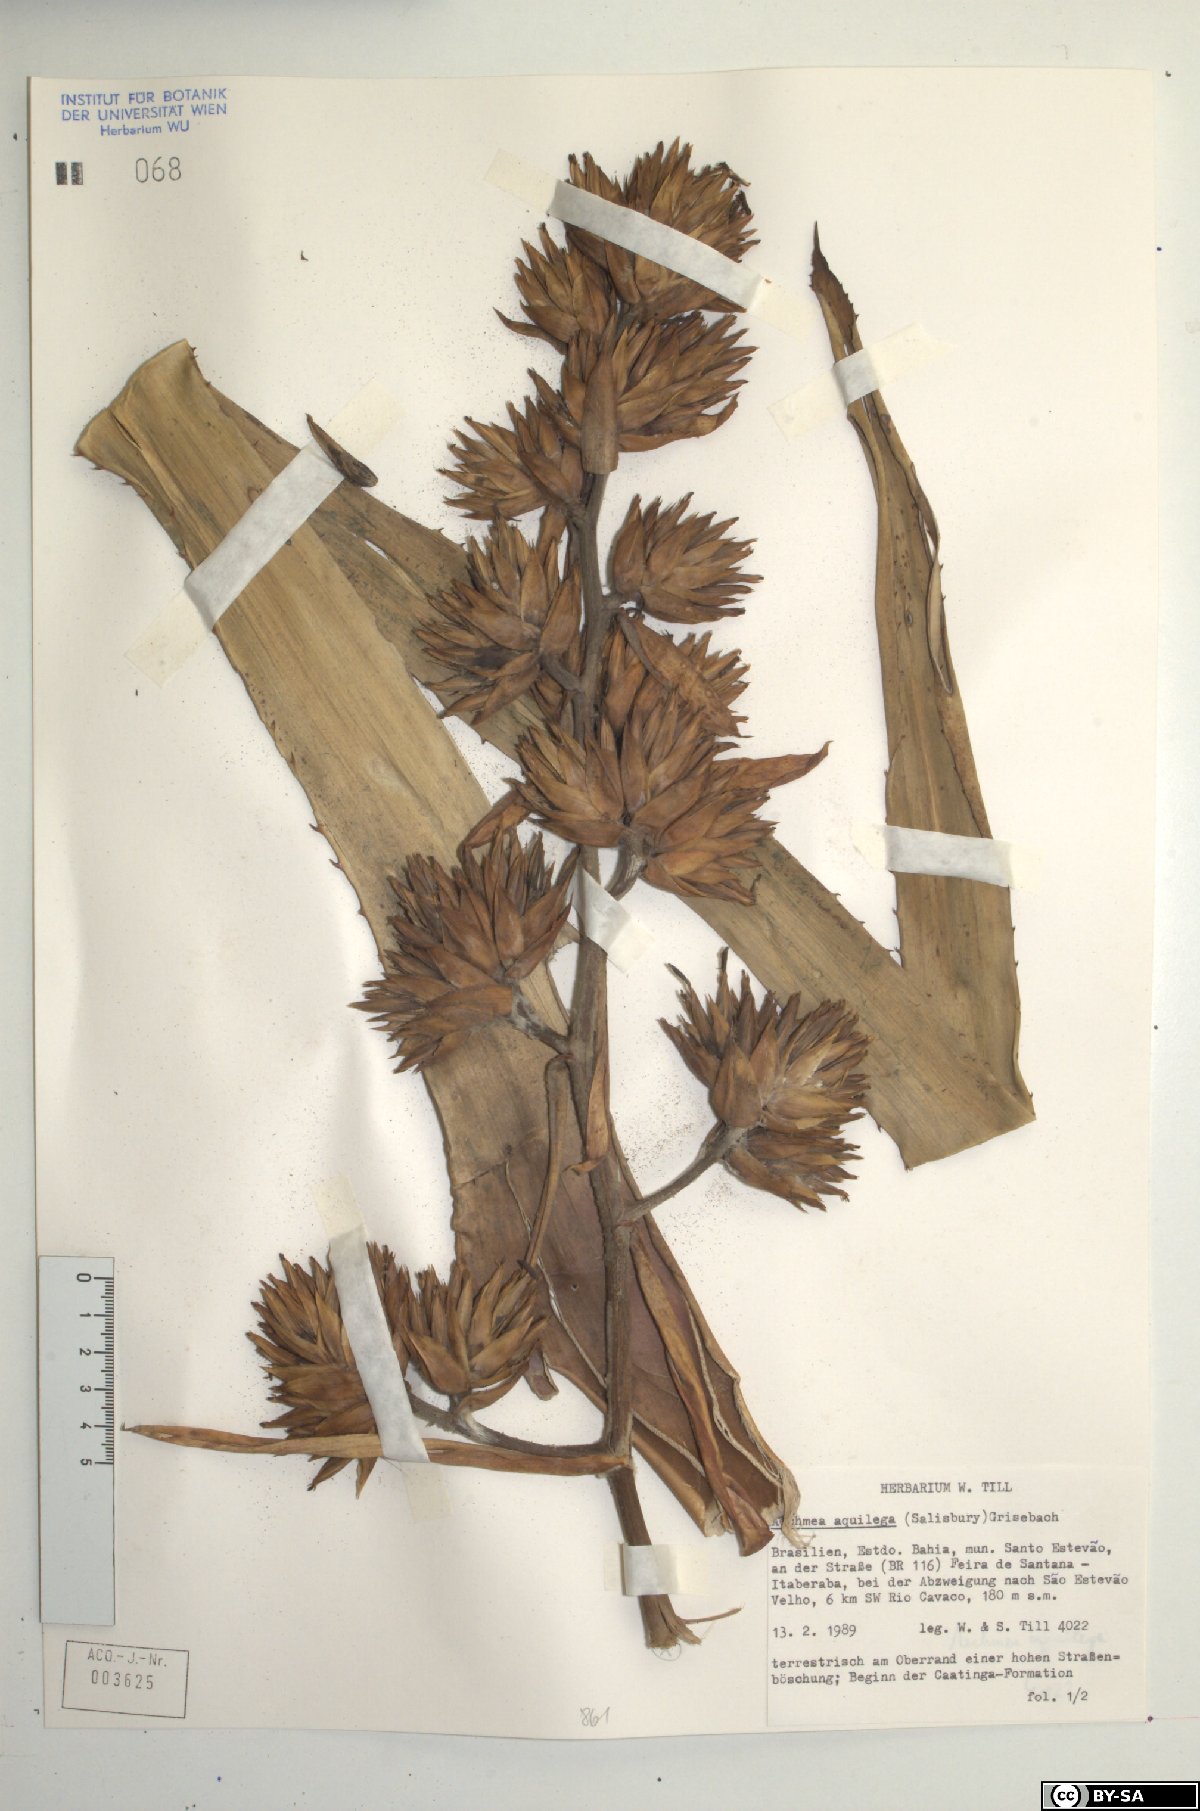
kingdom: Plantae
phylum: Tracheophyta
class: Liliopsida
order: Poales
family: Bromeliaceae
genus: Aechmea
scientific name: Aechmea aquilega
